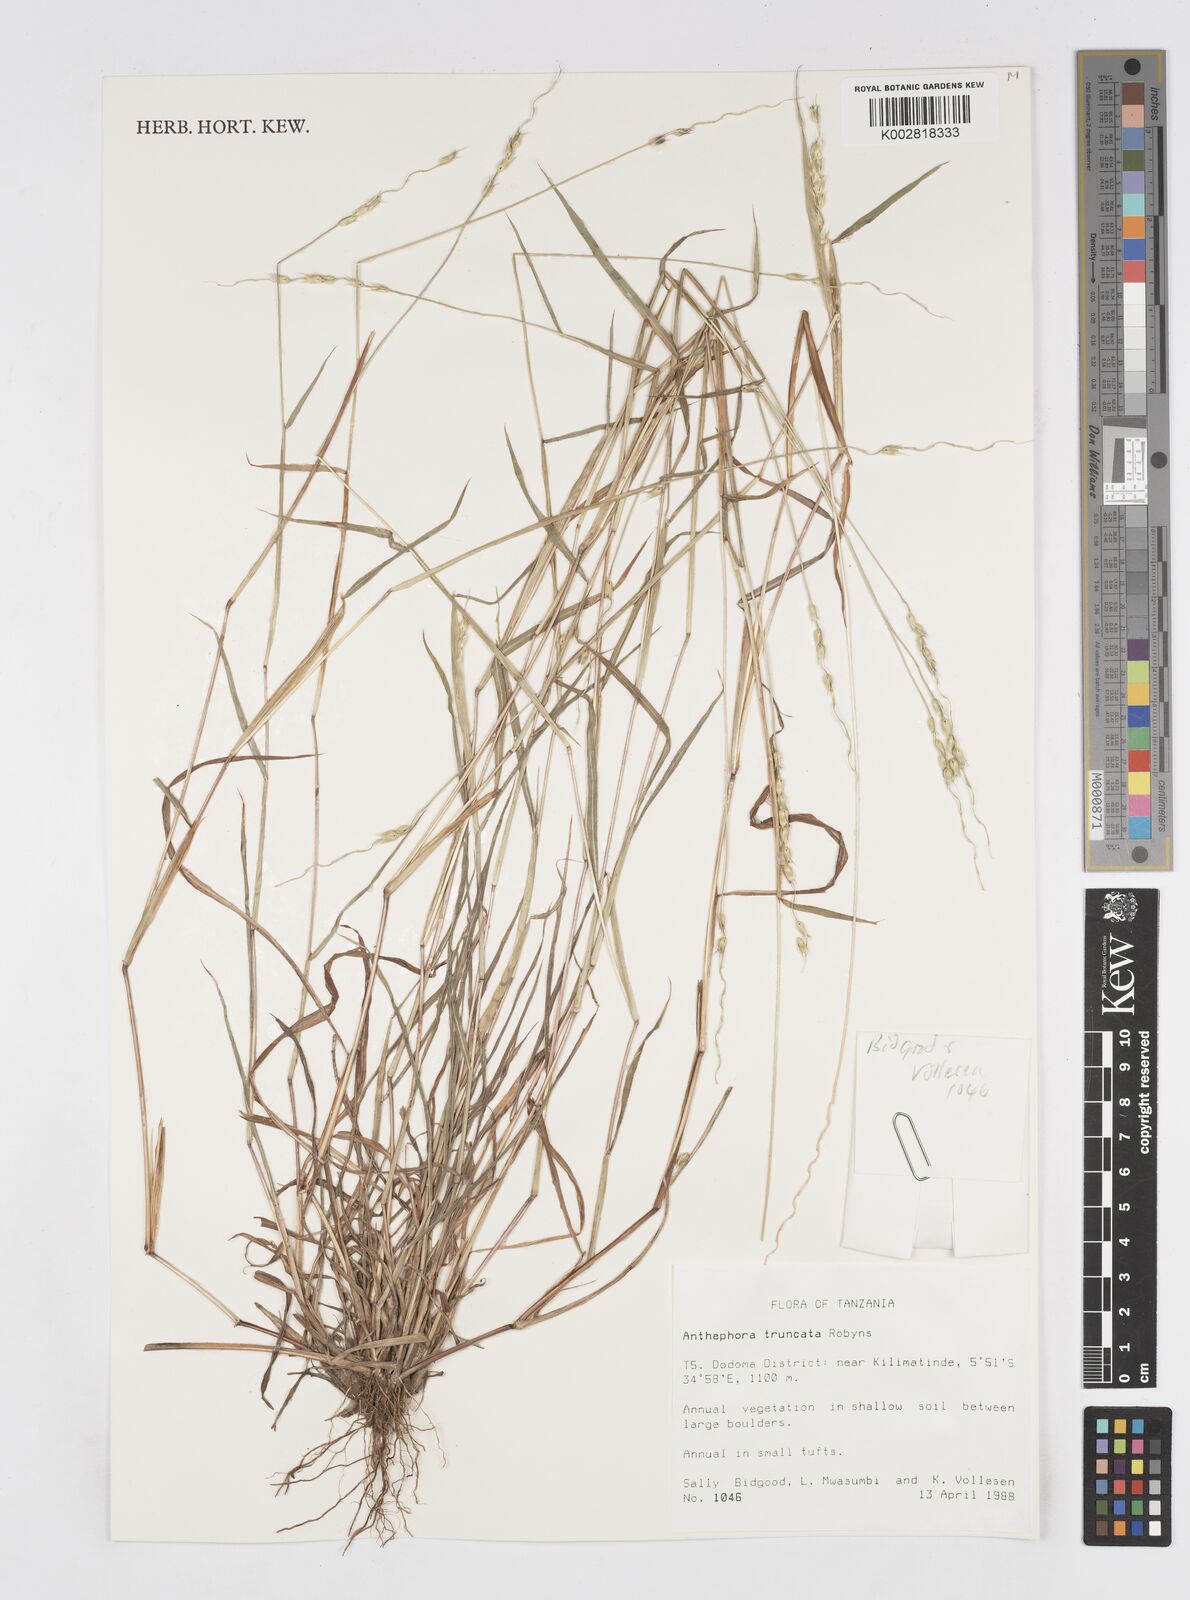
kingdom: Plantae
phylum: Tracheophyta
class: Liliopsida
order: Poales
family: Poaceae
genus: Anthephora
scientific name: Anthephora truncata
